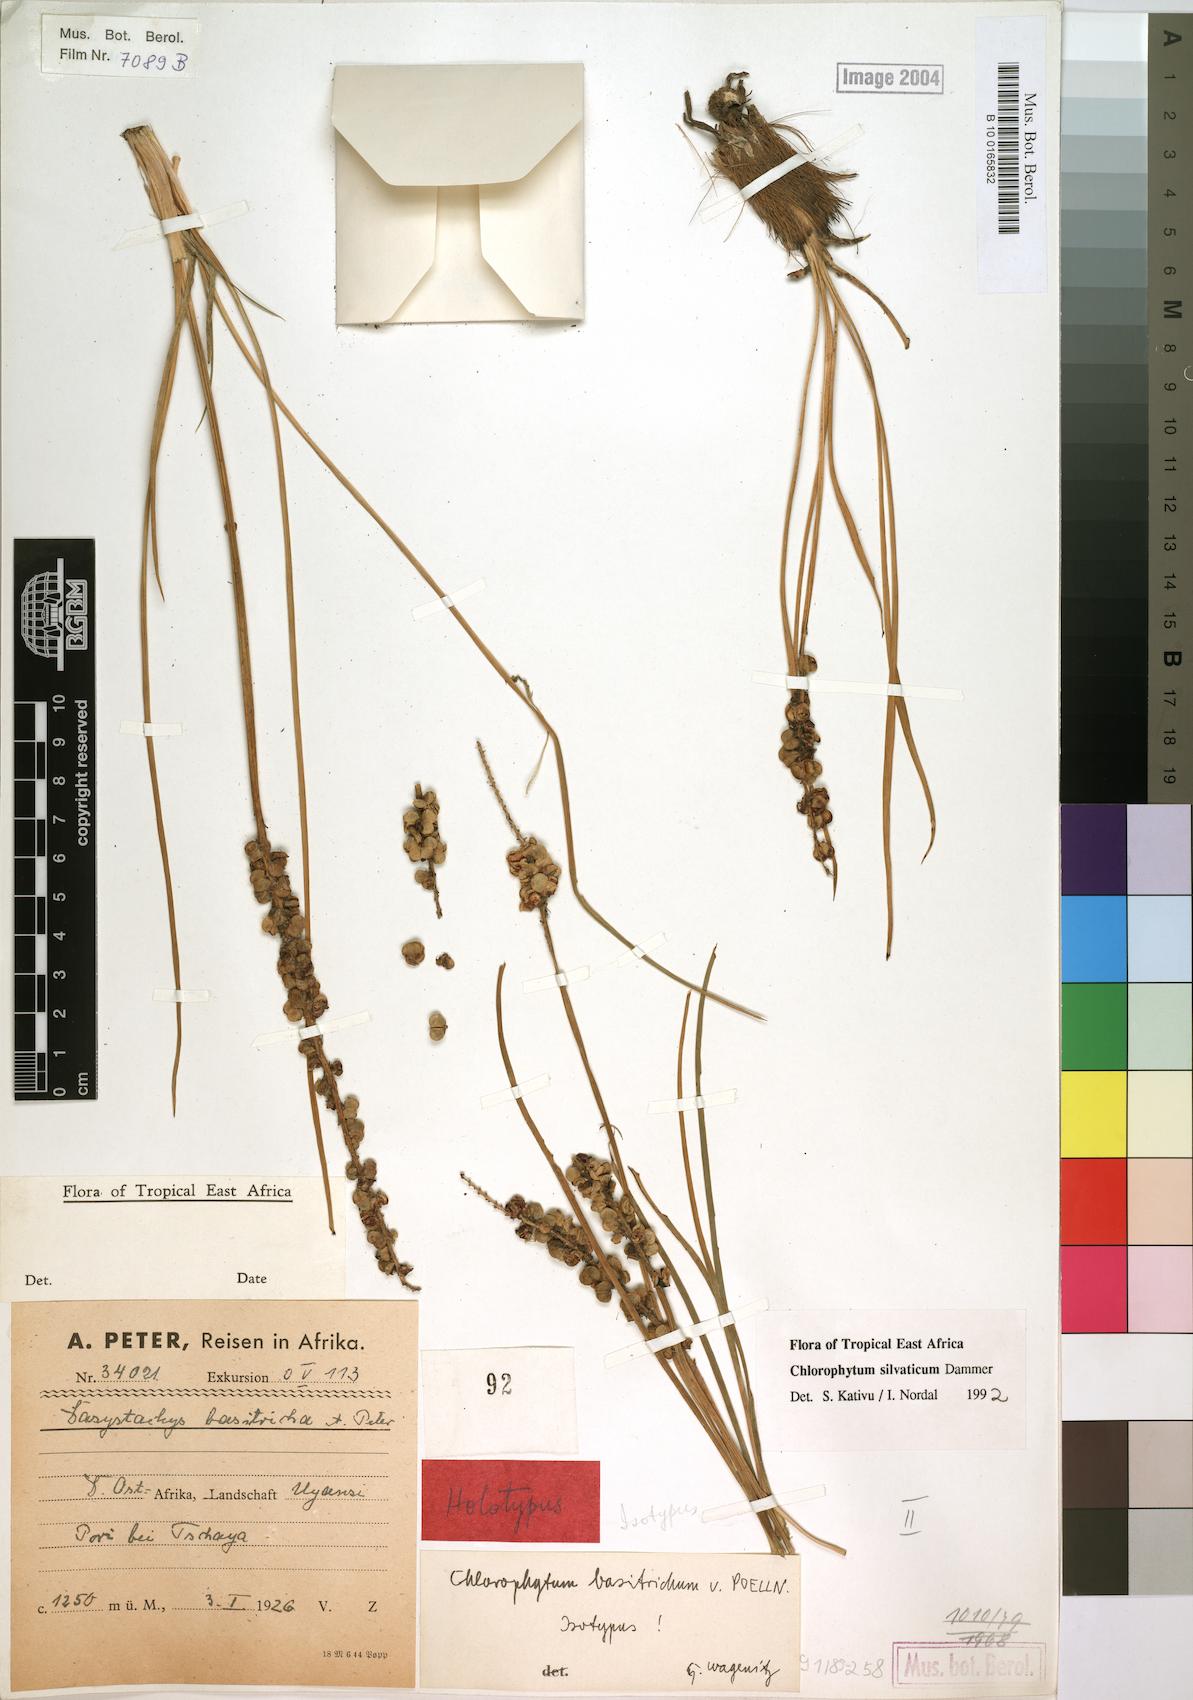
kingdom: Plantae
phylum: Tracheophyta
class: Liliopsida
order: Asparagales
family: Asparagaceae
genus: Chlorophytum
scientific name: Chlorophytum africanum
